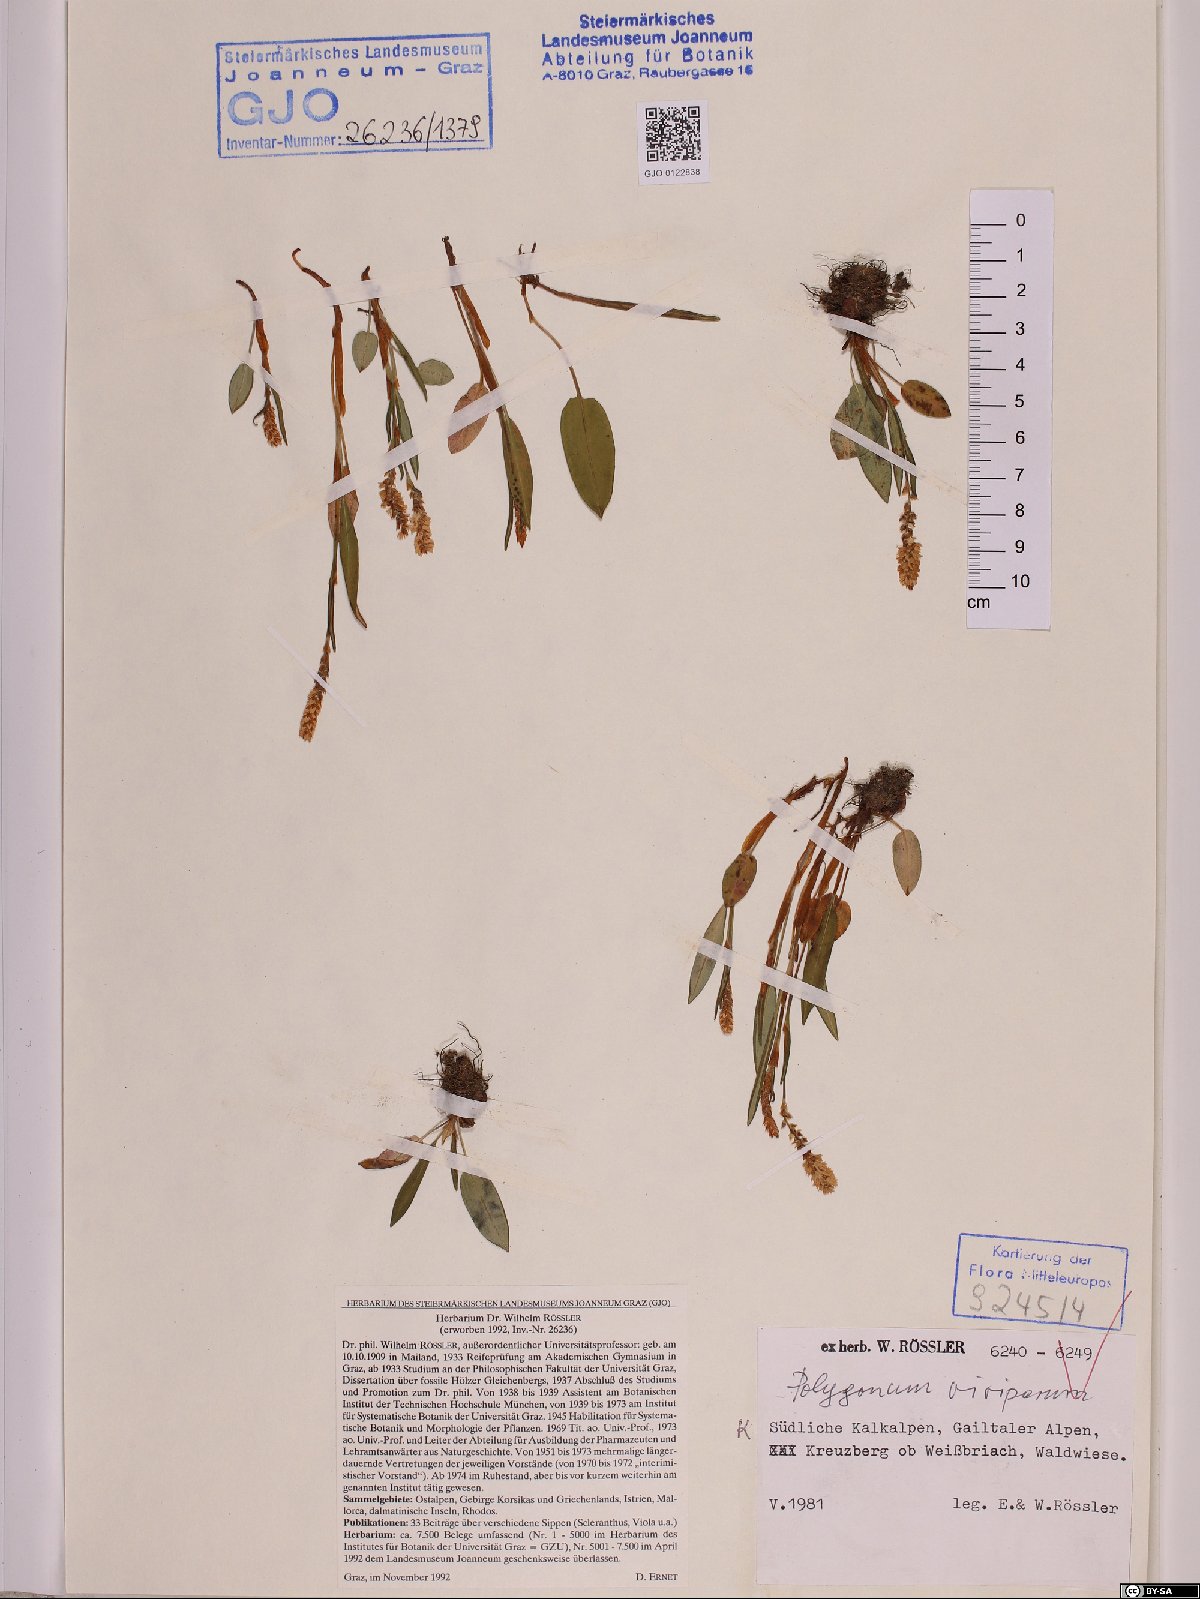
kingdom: Plantae
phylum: Tracheophyta
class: Magnoliopsida
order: Caryophyllales
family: Polygonaceae
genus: Bistorta
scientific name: Bistorta vivipara
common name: Alpine bistort
